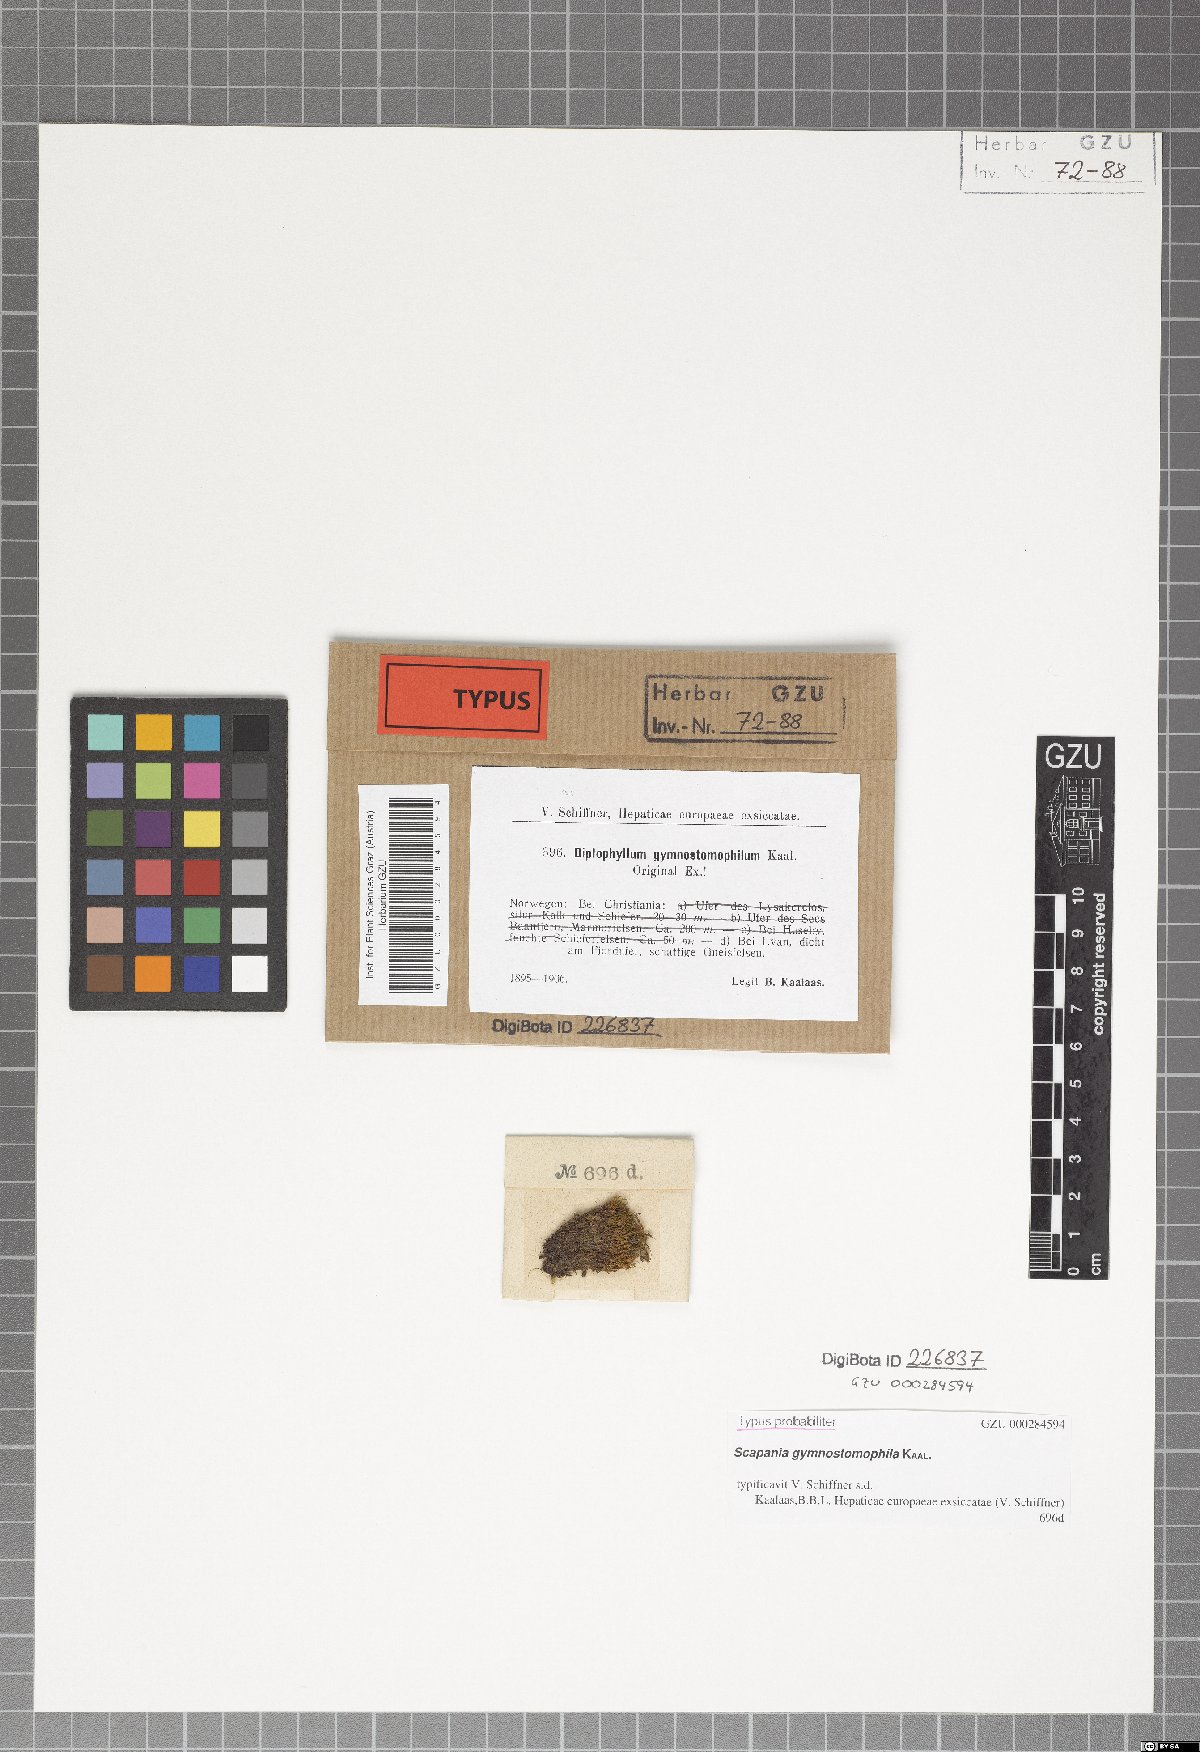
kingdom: Plantae
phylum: Marchantiophyta
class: Jungermanniopsida
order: Jungermanniales
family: Scapaniaceae
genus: Scapania
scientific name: Scapania gymnostomophila
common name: Narrow-lobed earwort
